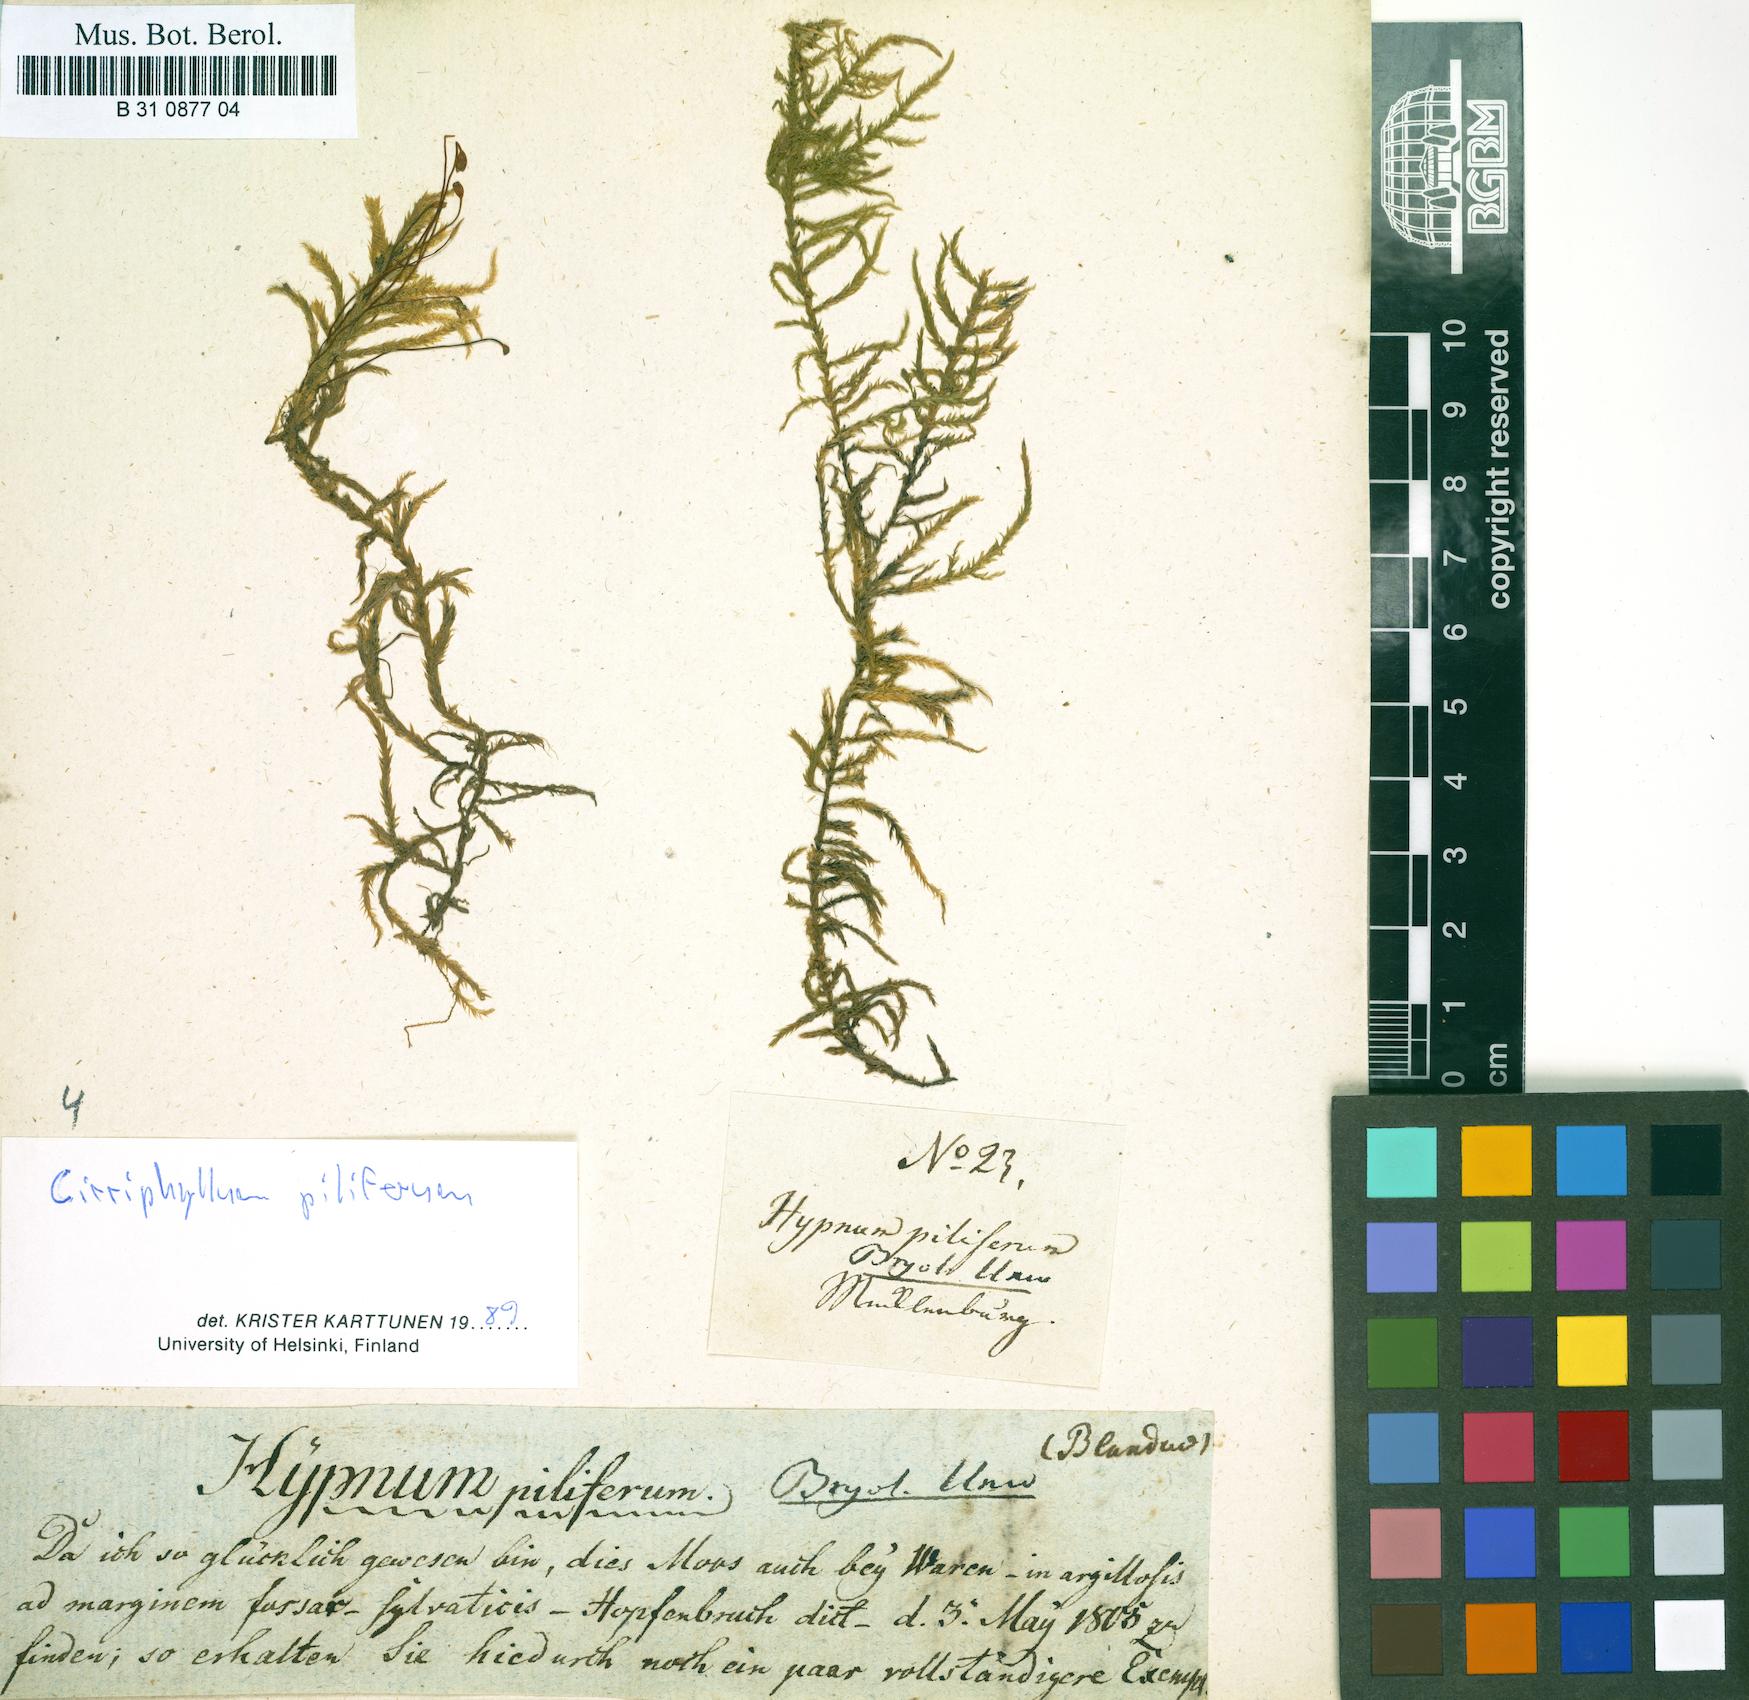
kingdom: Plantae
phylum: Bryophyta
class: Bryopsida
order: Hypnales
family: Brachytheciaceae
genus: Cirriphyllum
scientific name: Cirriphyllum piliferum
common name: Hair-pointed moss
